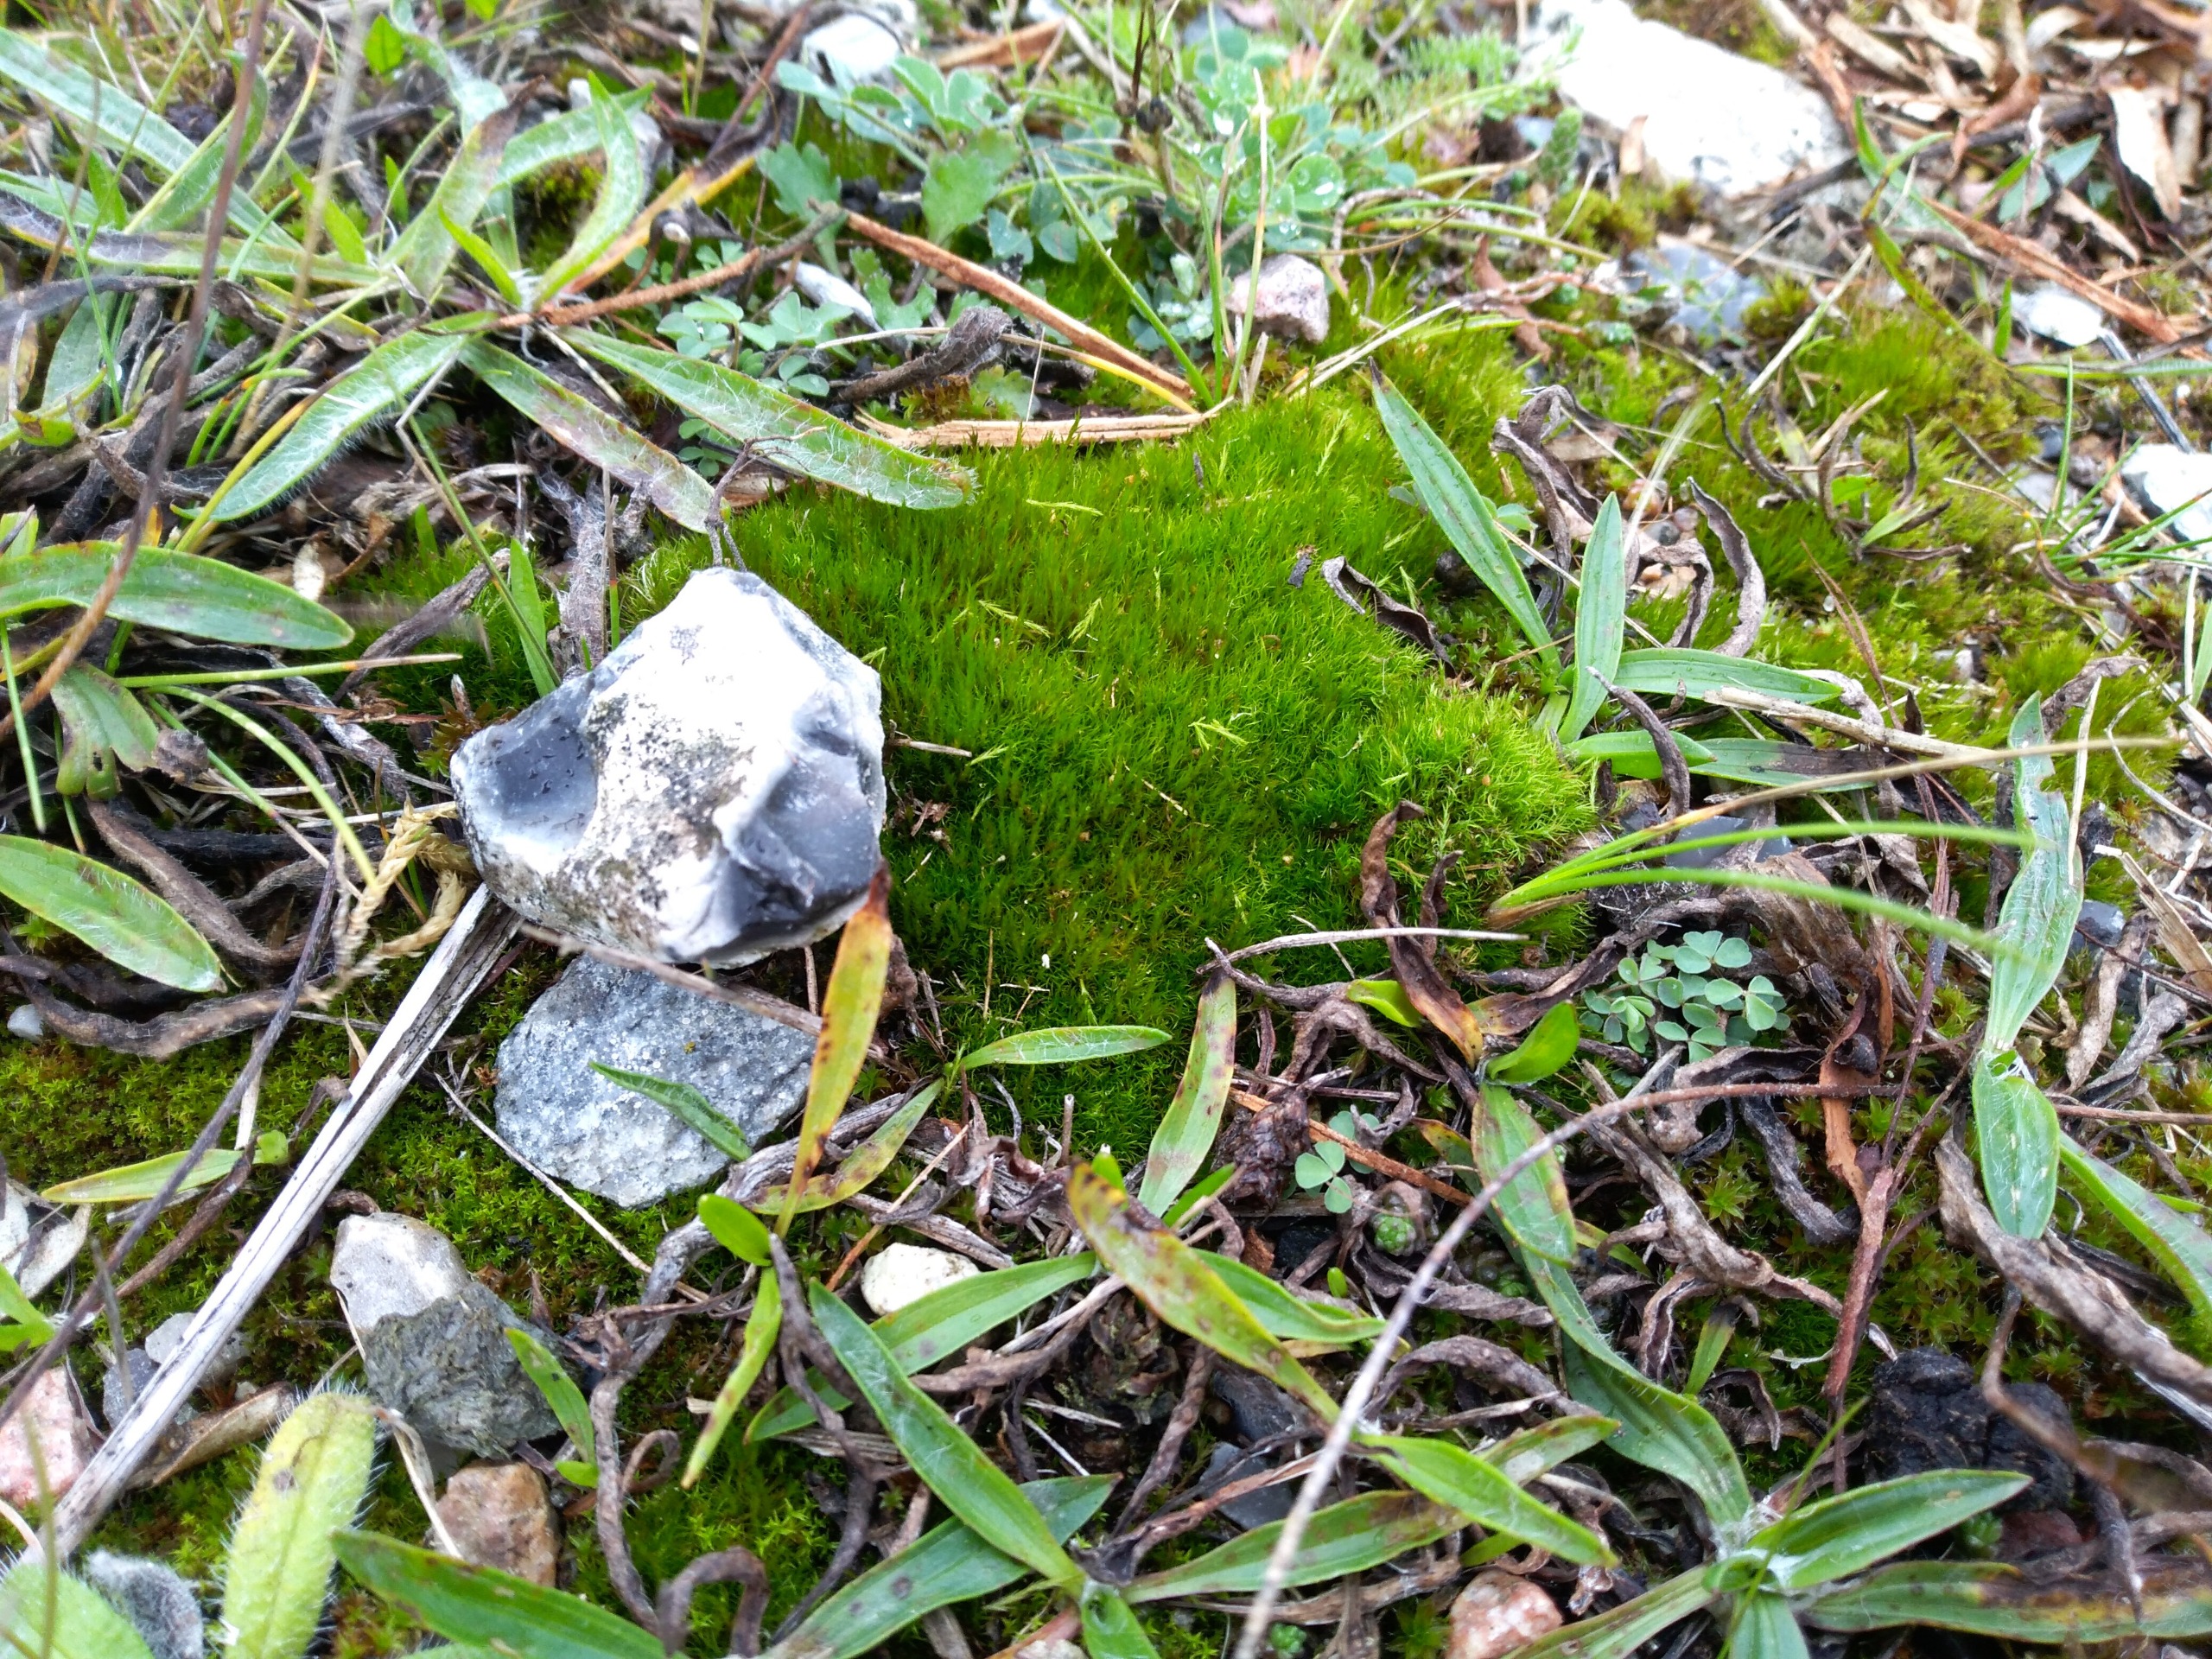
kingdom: Plantae
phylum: Bryophyta
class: Bryopsida
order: Scouleriales
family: Flexitrichaceae
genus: Flexitrichum
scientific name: Flexitrichum flexicaule
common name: Kalk-hårtand
